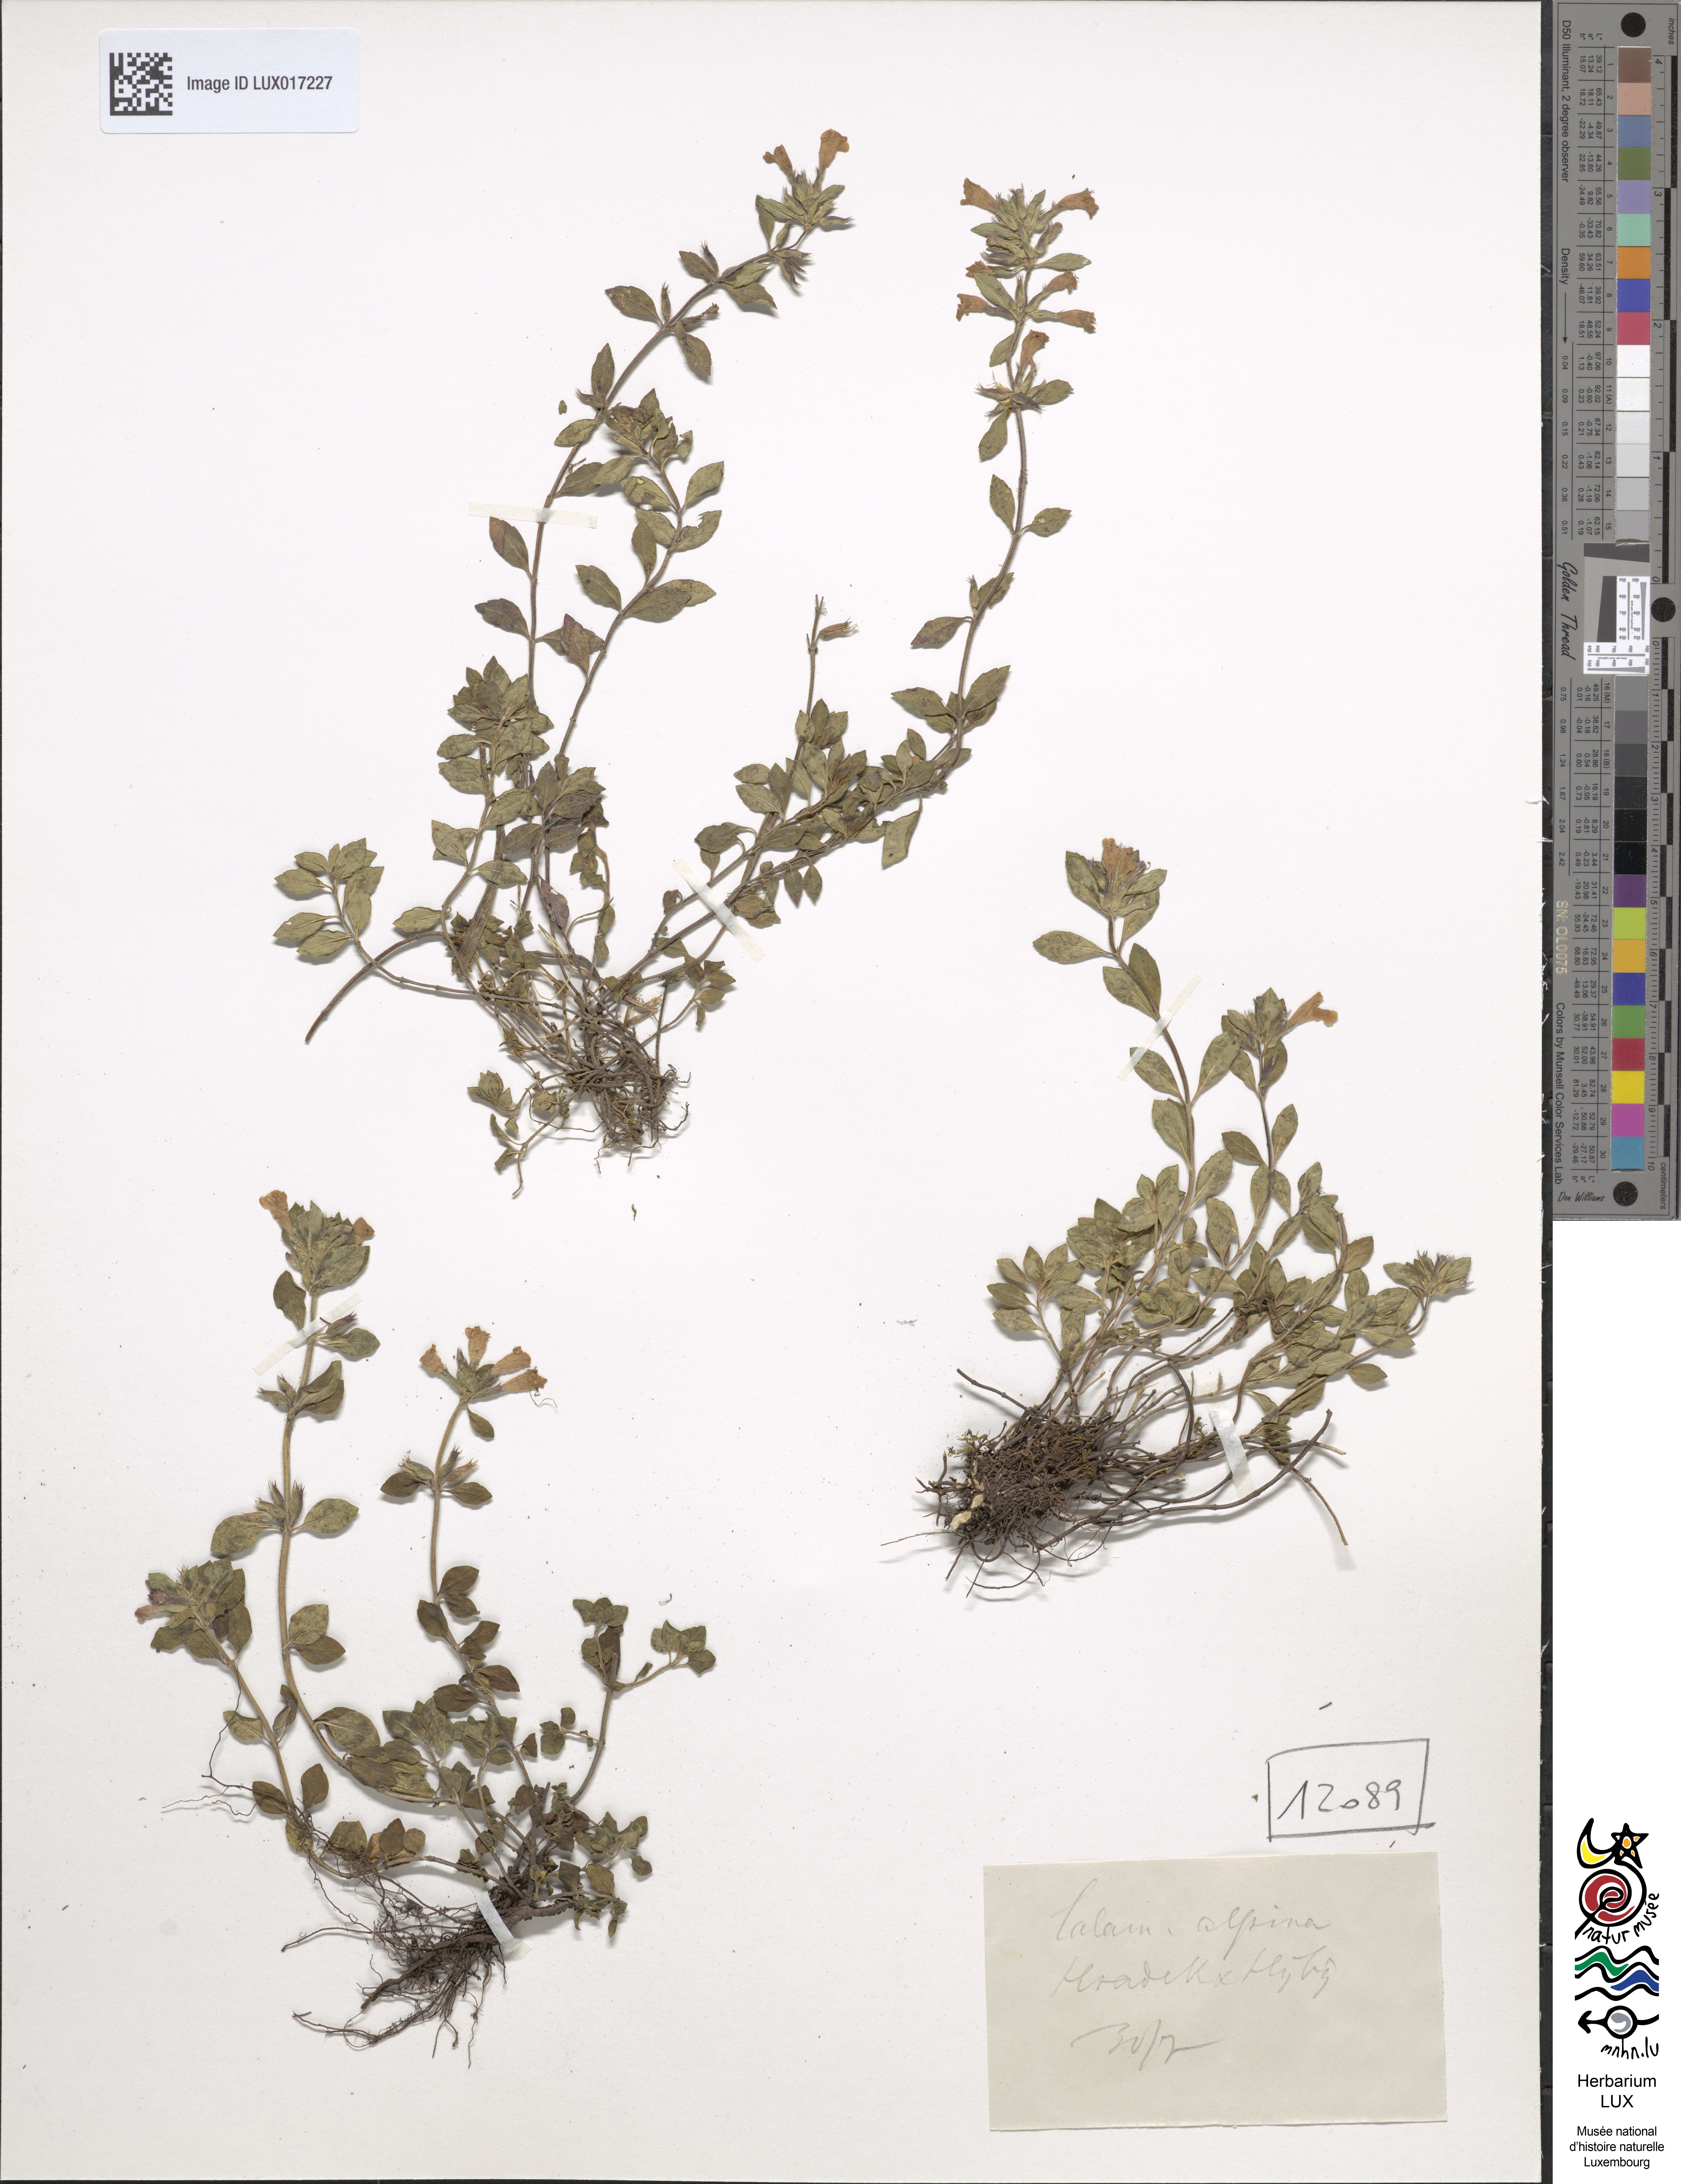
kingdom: Plantae
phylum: Tracheophyta
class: Magnoliopsida
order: Lamiales
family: Lamiaceae
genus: Clinopodium
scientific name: Clinopodium alpinum
